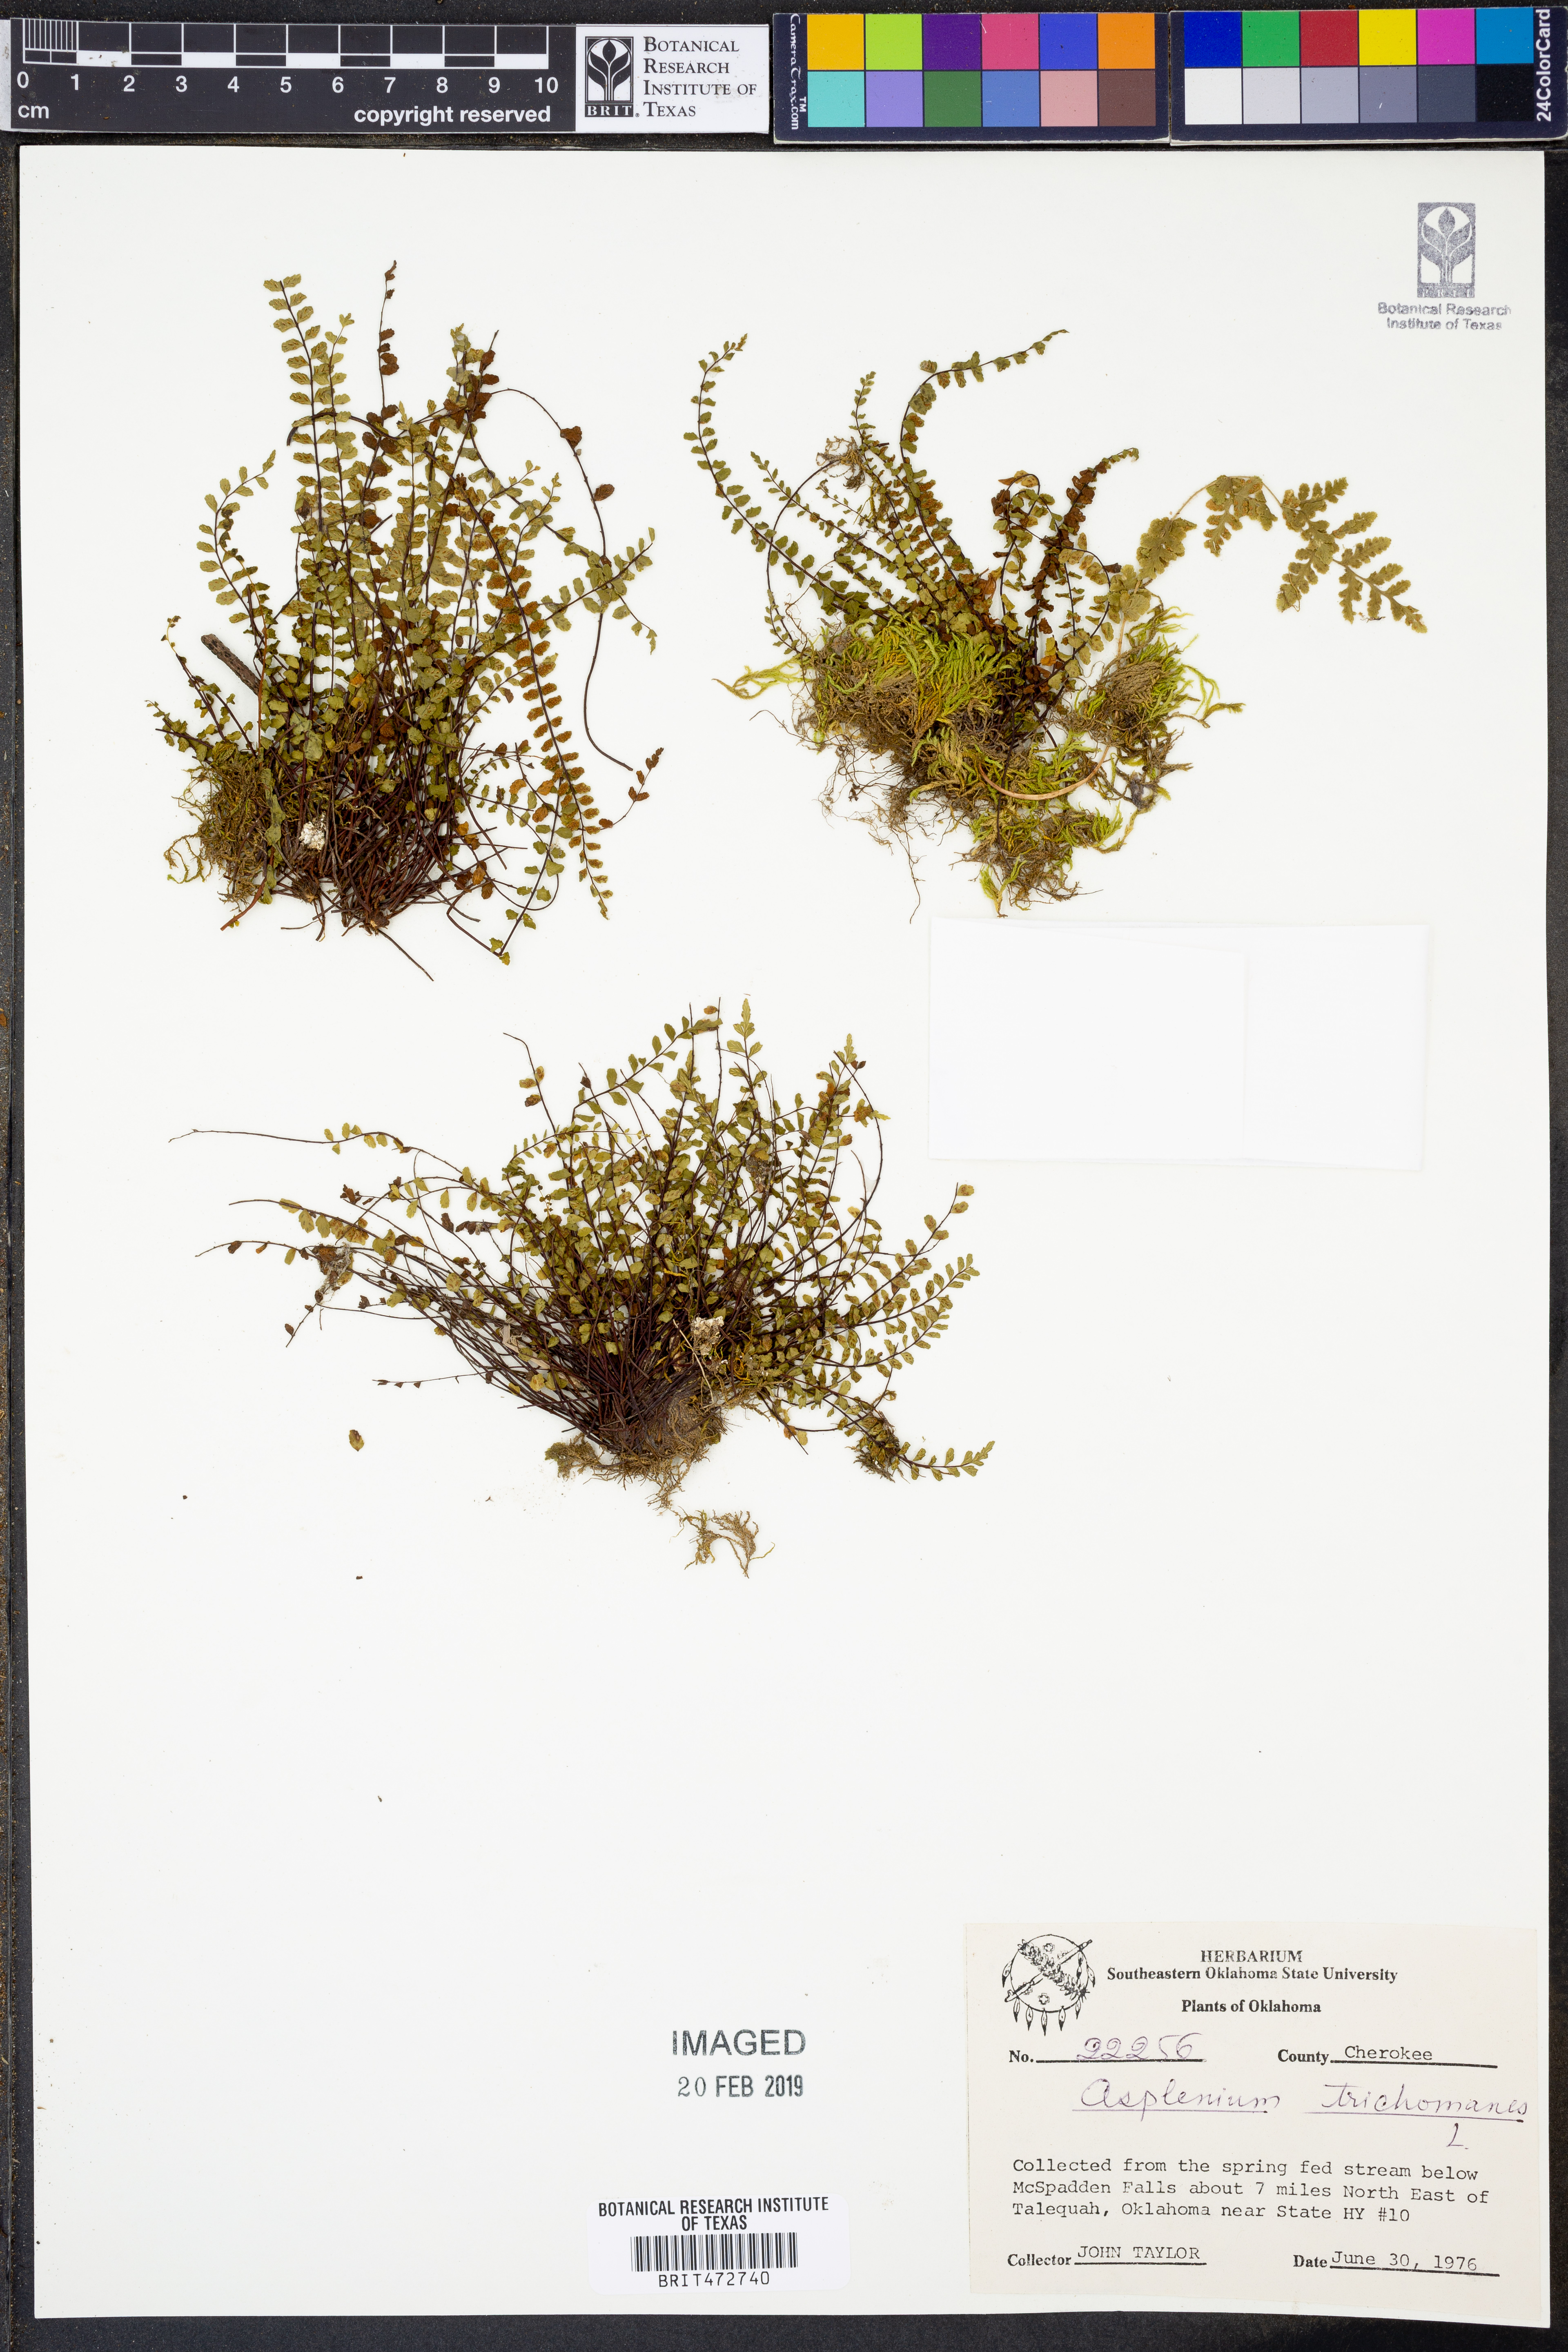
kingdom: Plantae
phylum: Tracheophyta
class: Polypodiopsida
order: Polypodiales
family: Aspleniaceae
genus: Asplenium
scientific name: Asplenium trichomanes
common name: Maidenhair spleenwort
